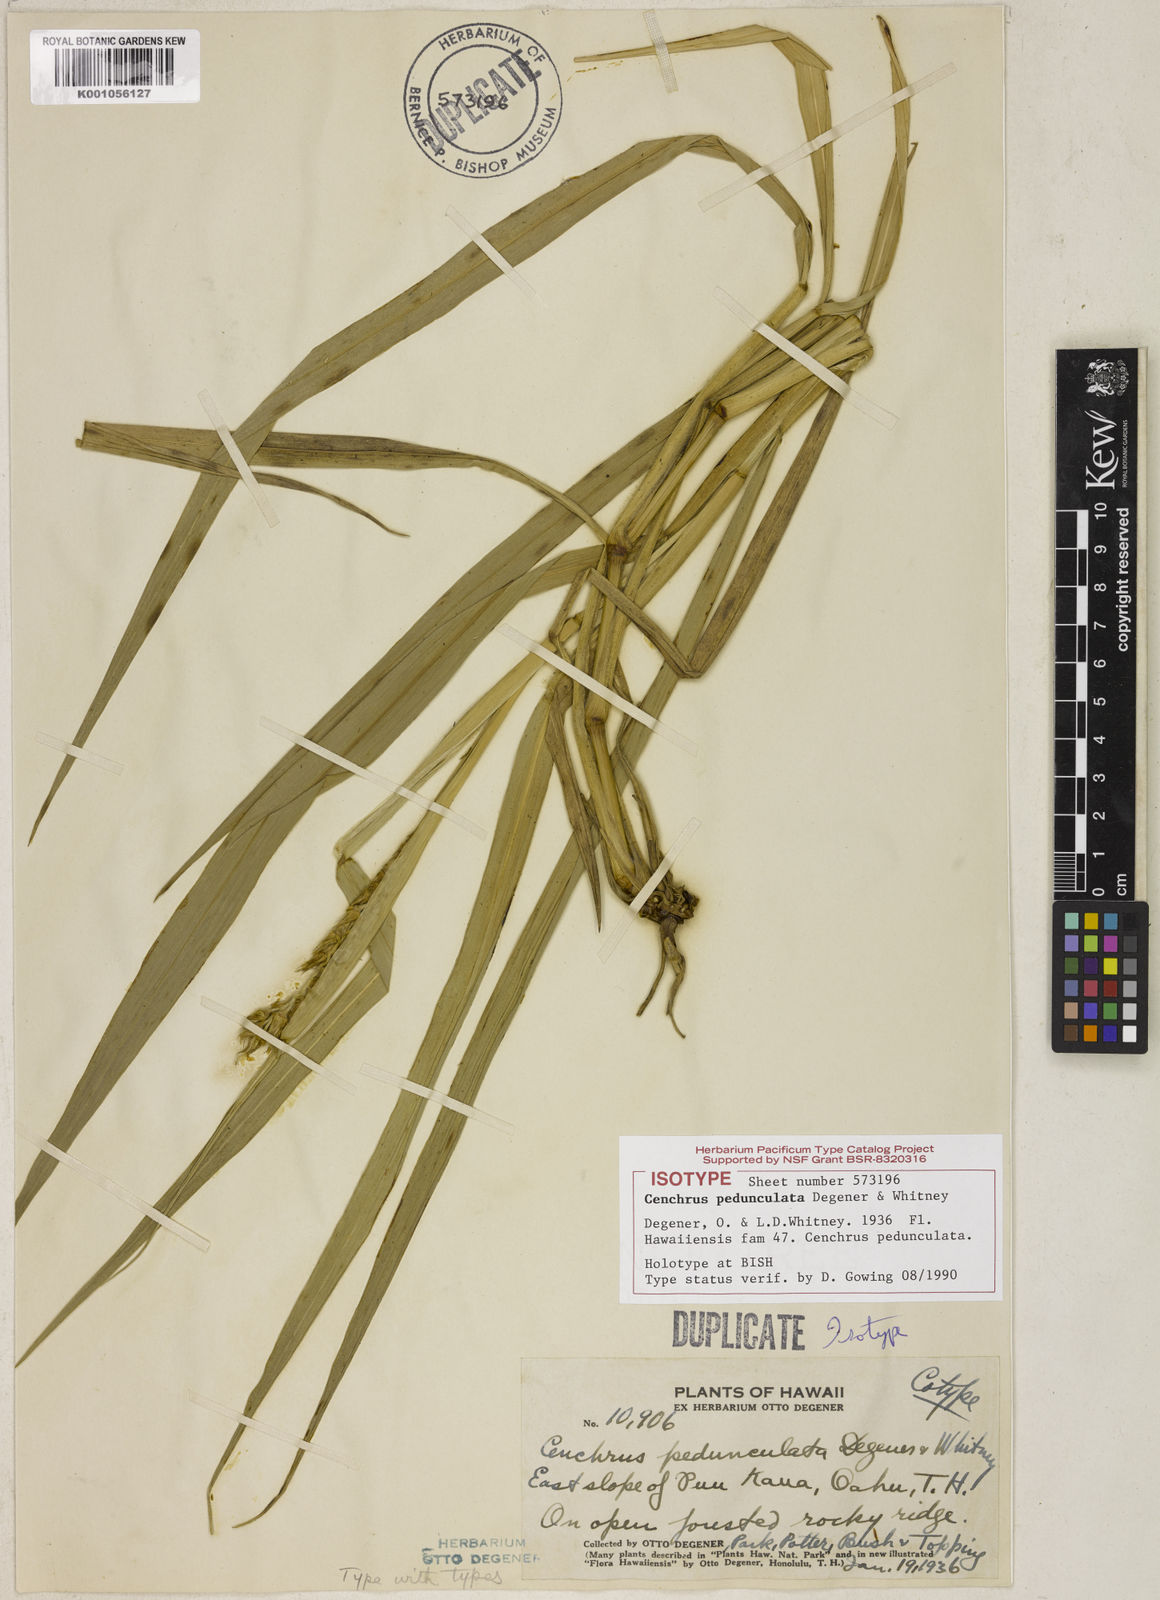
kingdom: Plantae
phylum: Tracheophyta
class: Liliopsida
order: Poales
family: Poaceae
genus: Cenchrus
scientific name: Cenchrus agrimonioides
